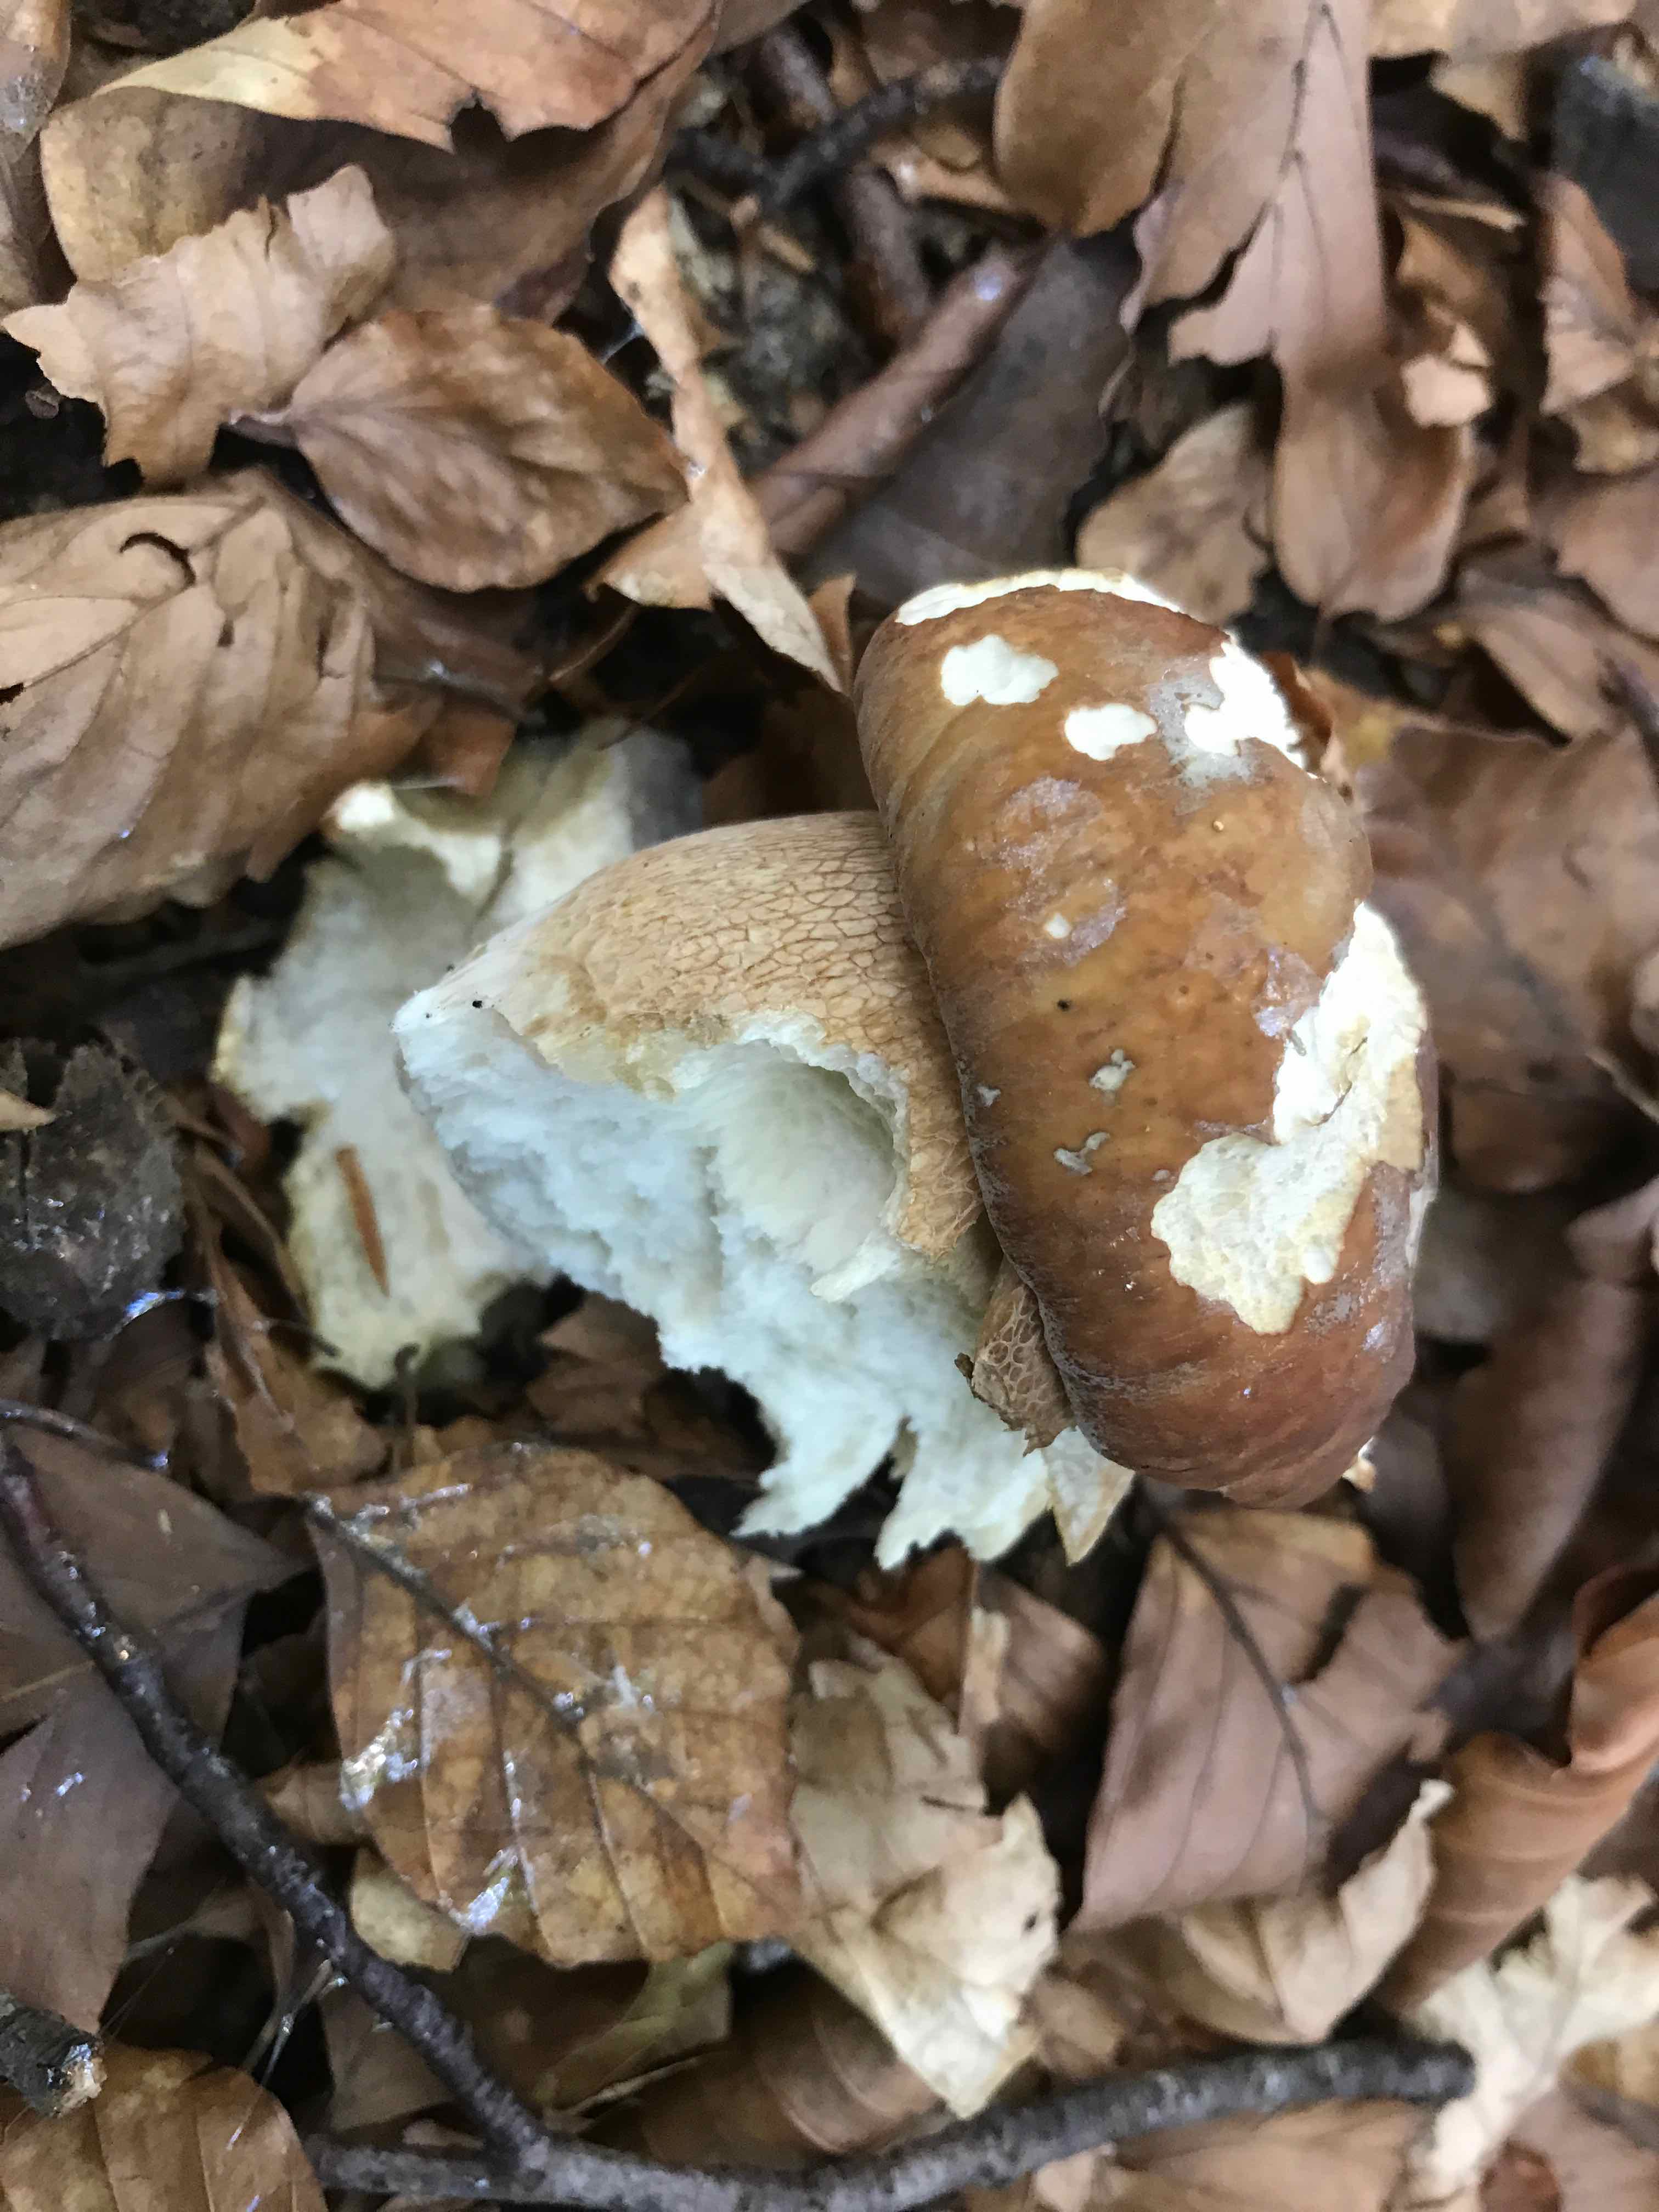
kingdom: Fungi
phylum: Basidiomycota
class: Agaricomycetes
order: Boletales
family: Boletaceae
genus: Boletus
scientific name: Boletus edulis
